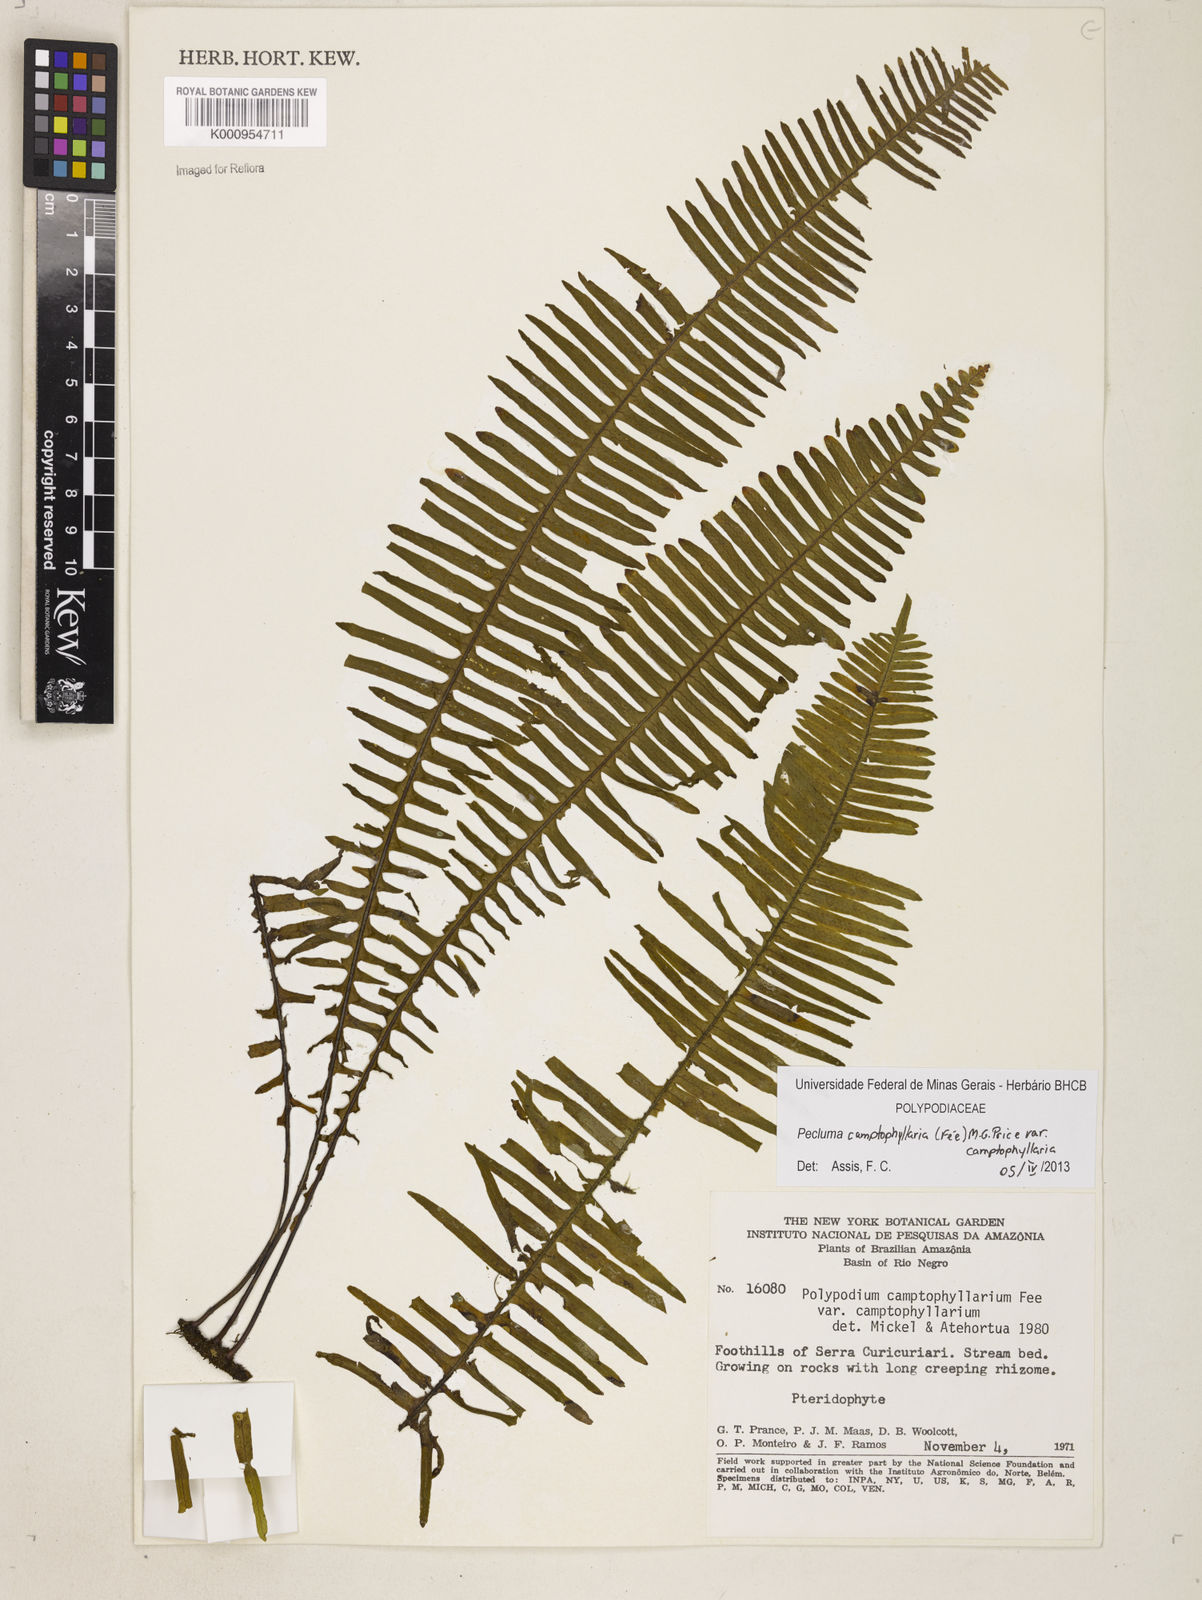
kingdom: Plantae
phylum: Tracheophyta
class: Polypodiopsida
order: Polypodiales
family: Polypodiaceae
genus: Pecluma
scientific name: Pecluma
